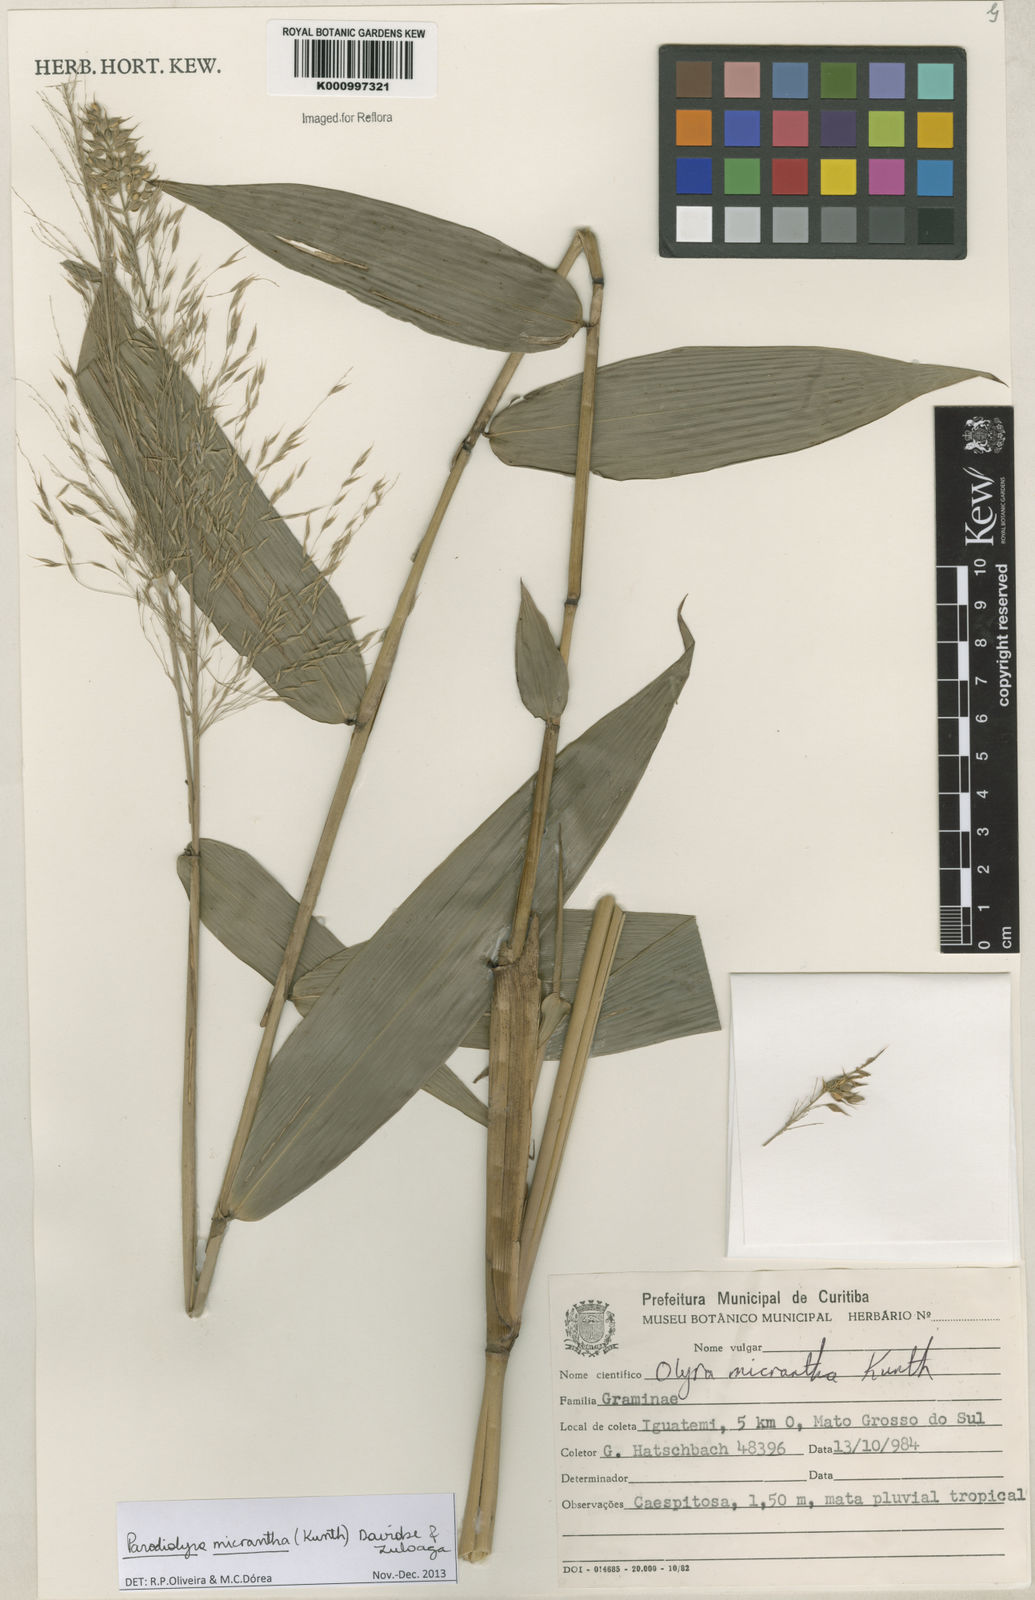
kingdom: Plantae
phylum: Tracheophyta
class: Liliopsida
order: Poales
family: Poaceae
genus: Taquara
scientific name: Taquara micrantha
